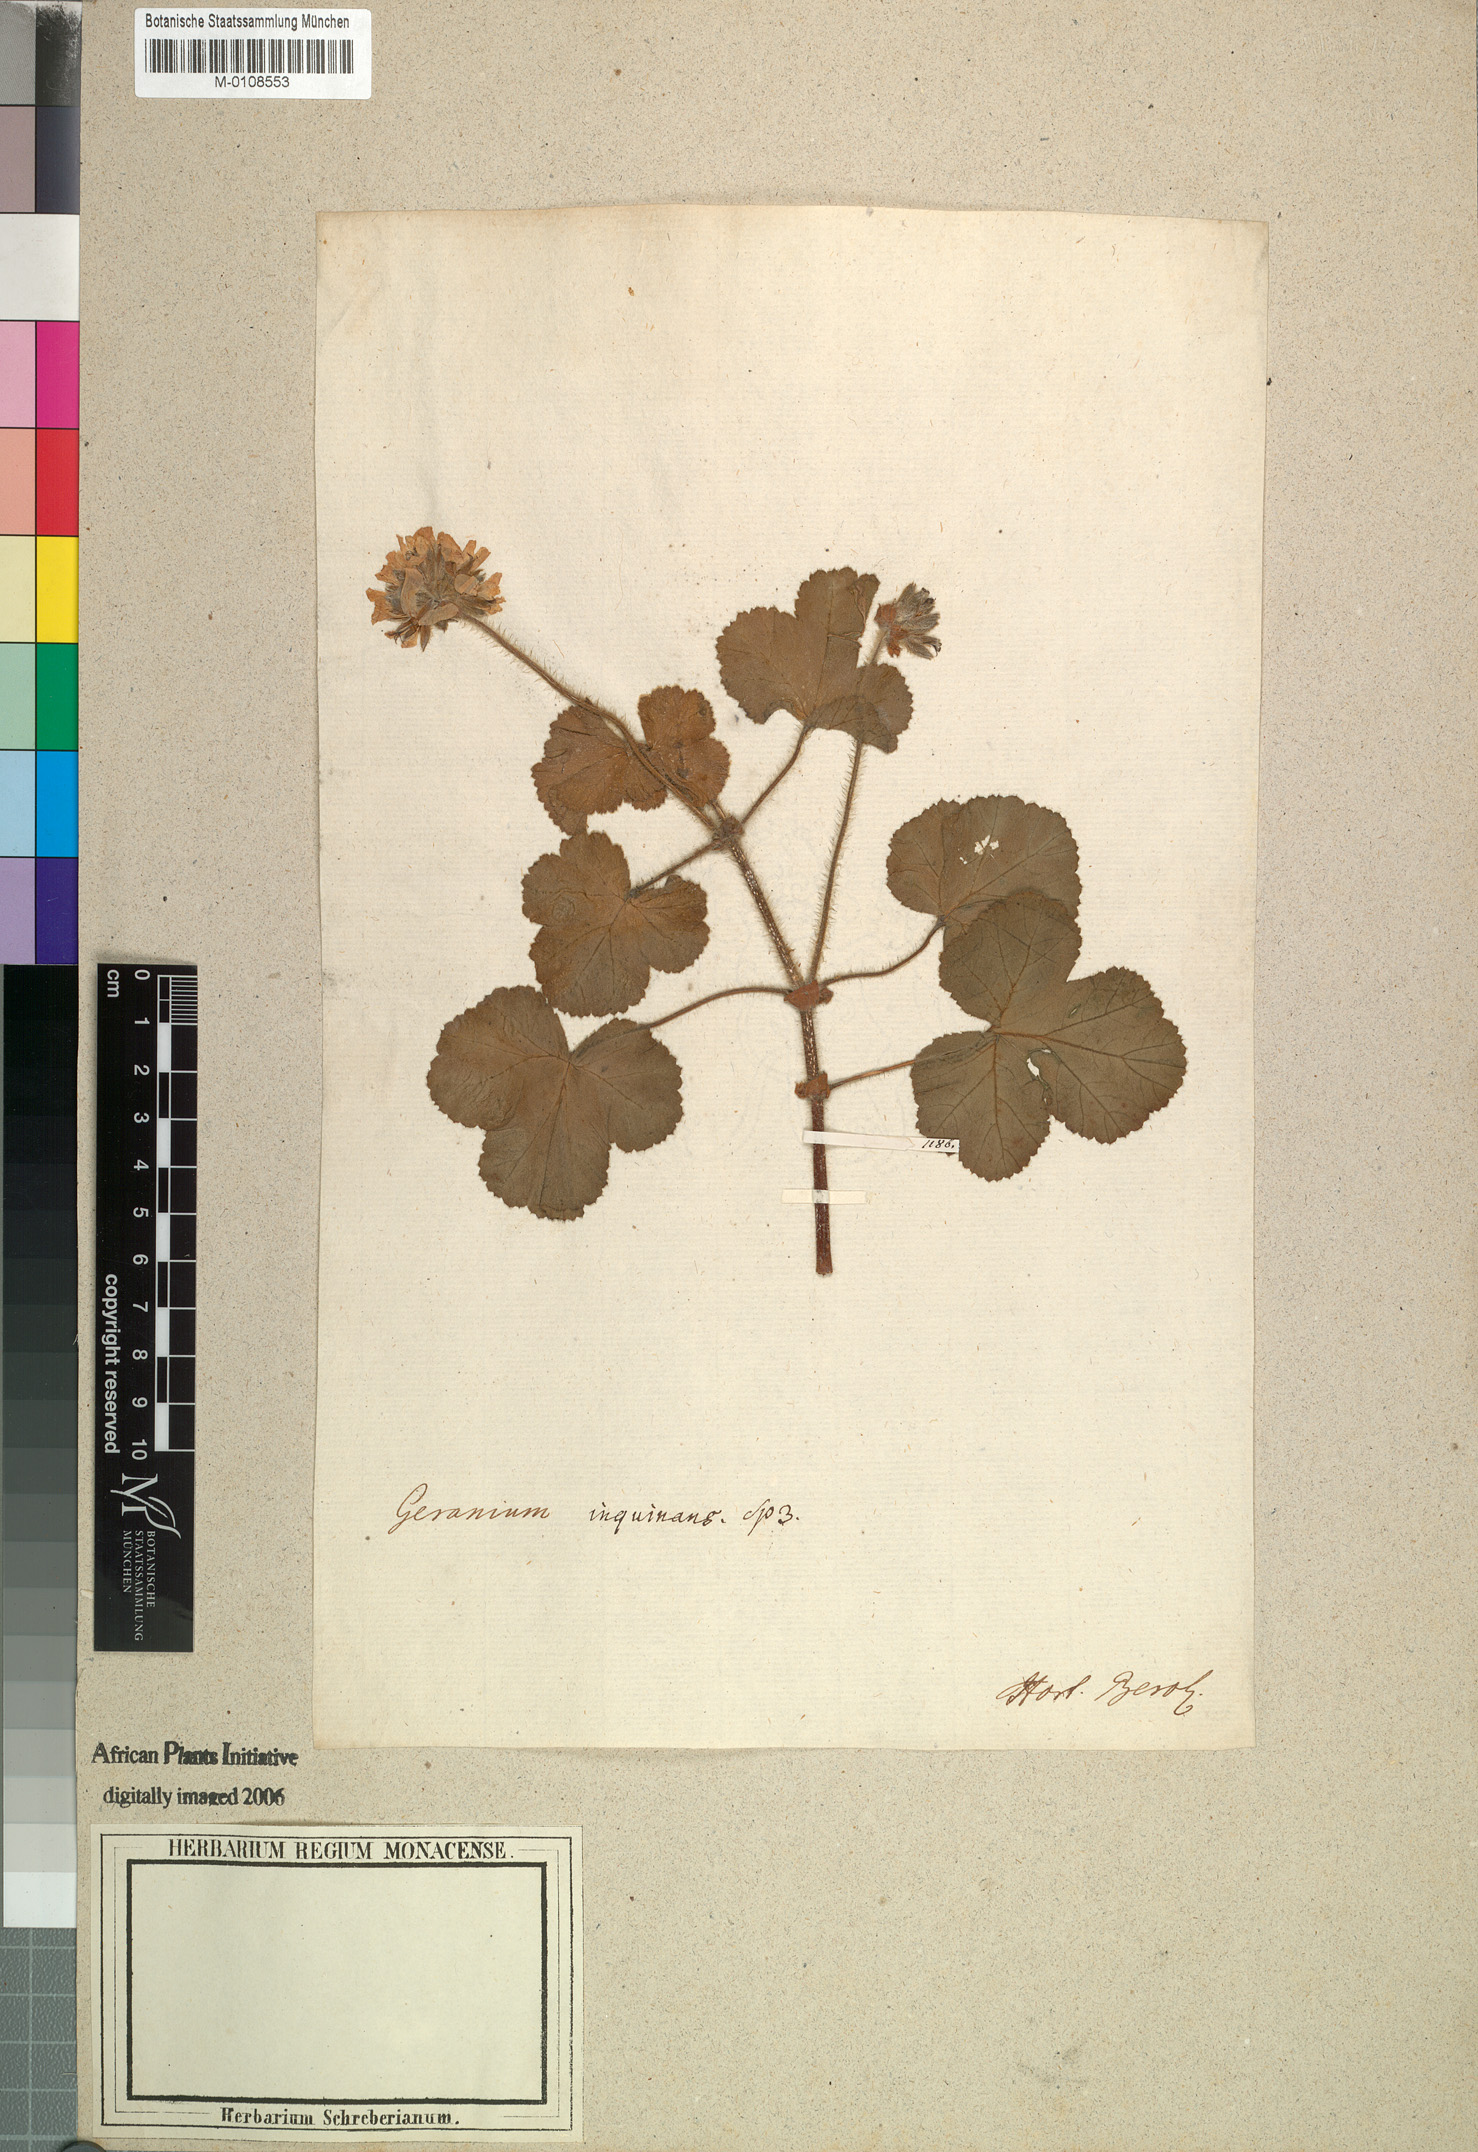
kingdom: Plantae
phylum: Tracheophyta
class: Magnoliopsida
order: Geraniales
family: Geraniaceae
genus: Pelargonium
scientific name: Pelargonium vitifolium
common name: Grapeleaf geranium
